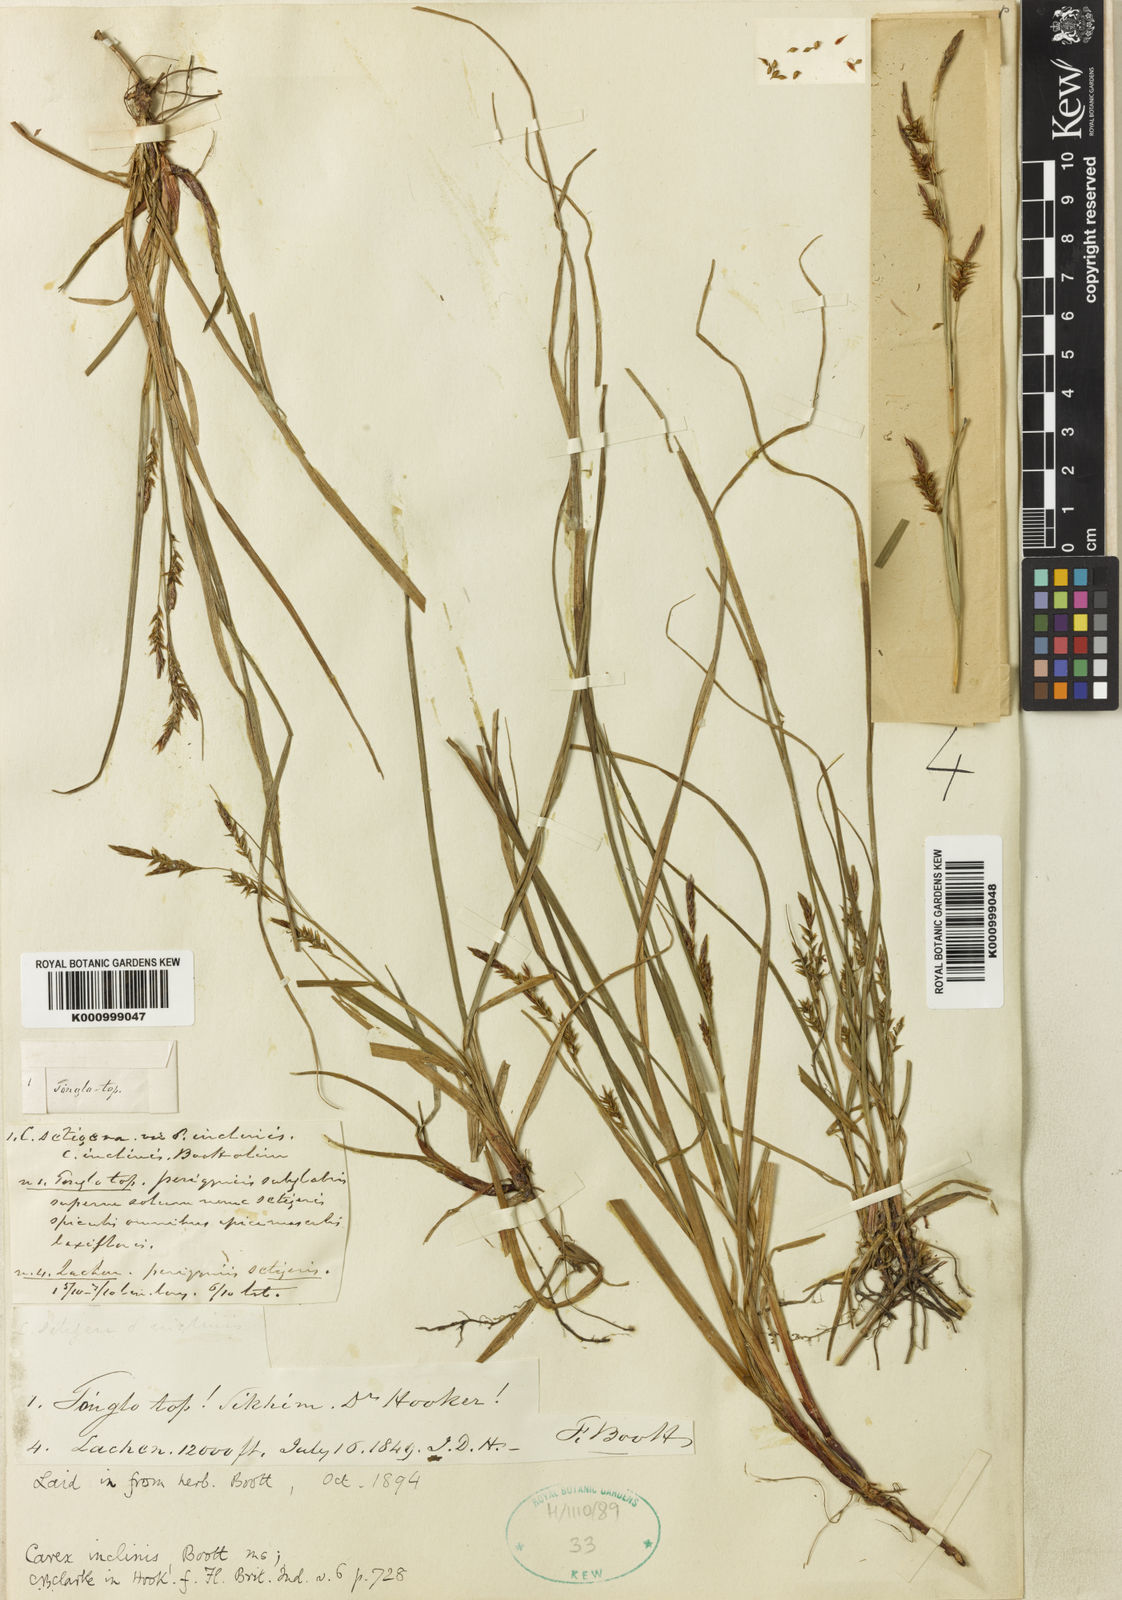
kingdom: Plantae
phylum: Tracheophyta
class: Liliopsida
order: Poales
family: Cyperaceae
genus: Carex
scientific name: Carex inclinis
